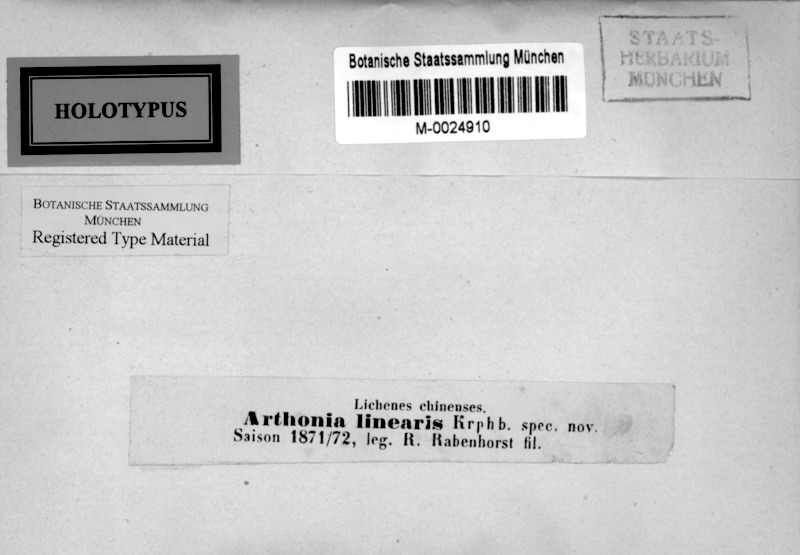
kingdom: Fungi
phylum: Ascomycota
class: Arthoniomycetes
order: Arthoniales
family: Arthoniaceae
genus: Arthonia
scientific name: Arthonia
